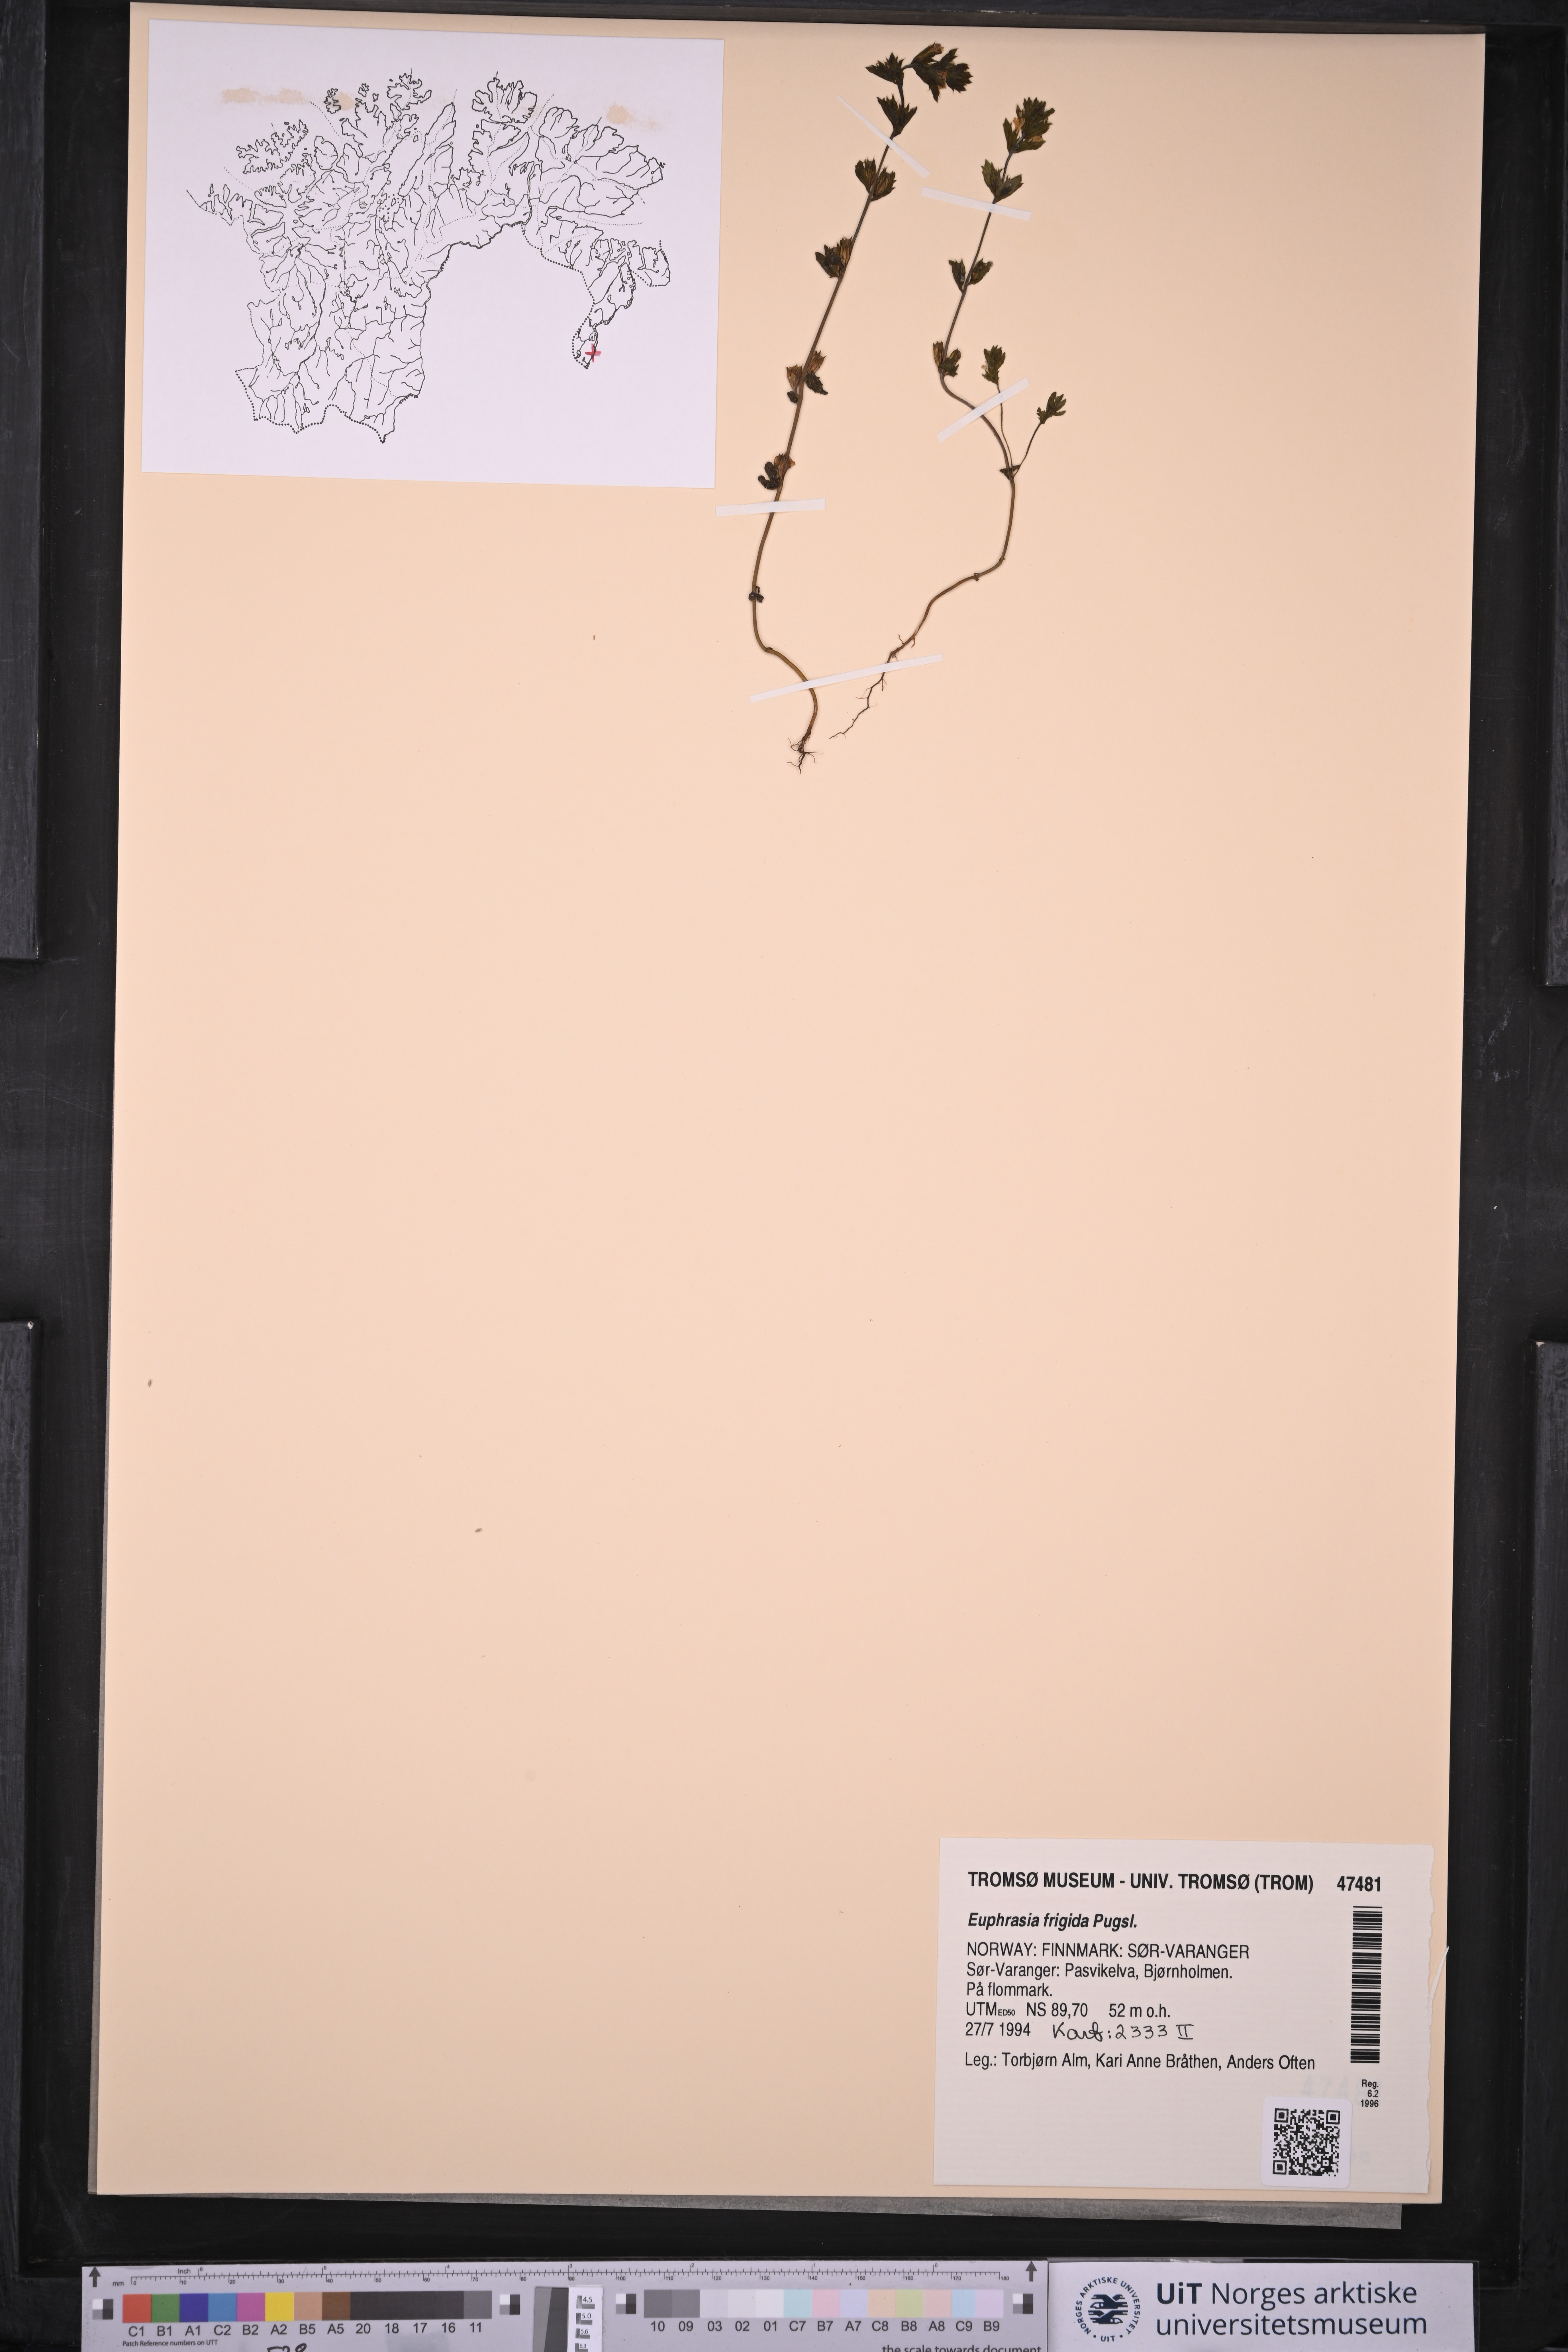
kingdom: Plantae
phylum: Tracheophyta
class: Magnoliopsida
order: Lamiales
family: Orobanchaceae
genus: Euphrasia
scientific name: Euphrasia frigida
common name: An eyebright
